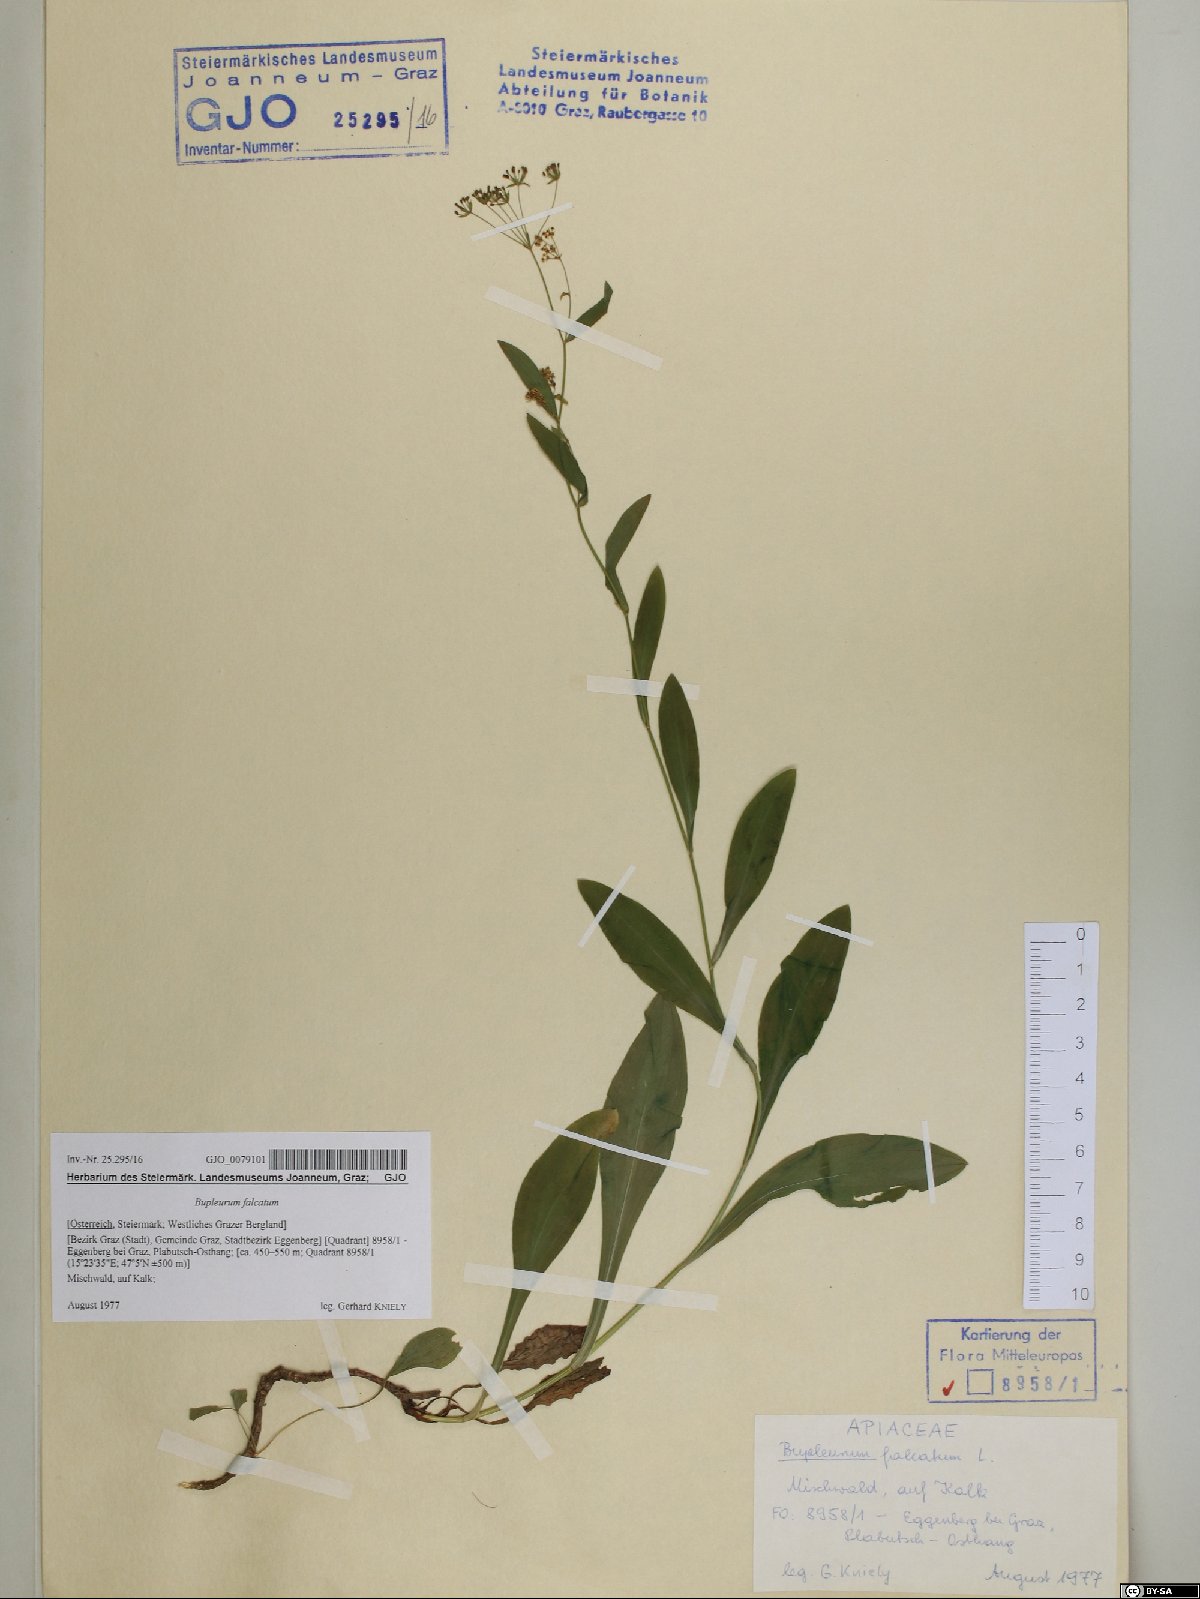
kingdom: Plantae
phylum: Tracheophyta
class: Magnoliopsida
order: Apiales
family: Apiaceae
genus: Bupleurum
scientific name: Bupleurum falcatum
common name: Sickle-leaved hare's-ear
